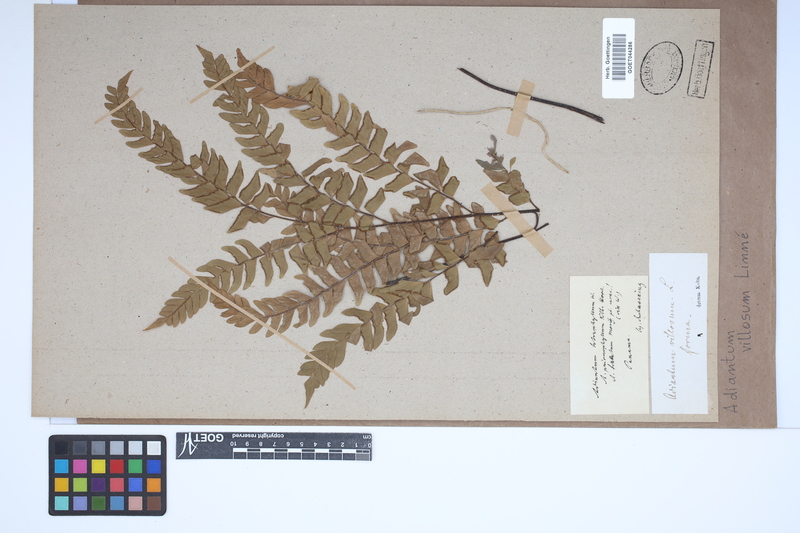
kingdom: Plantae
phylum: Tracheophyta
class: Polypodiopsida
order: Polypodiales
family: Pteridaceae
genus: Adiantum
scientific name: Adiantum villosum
